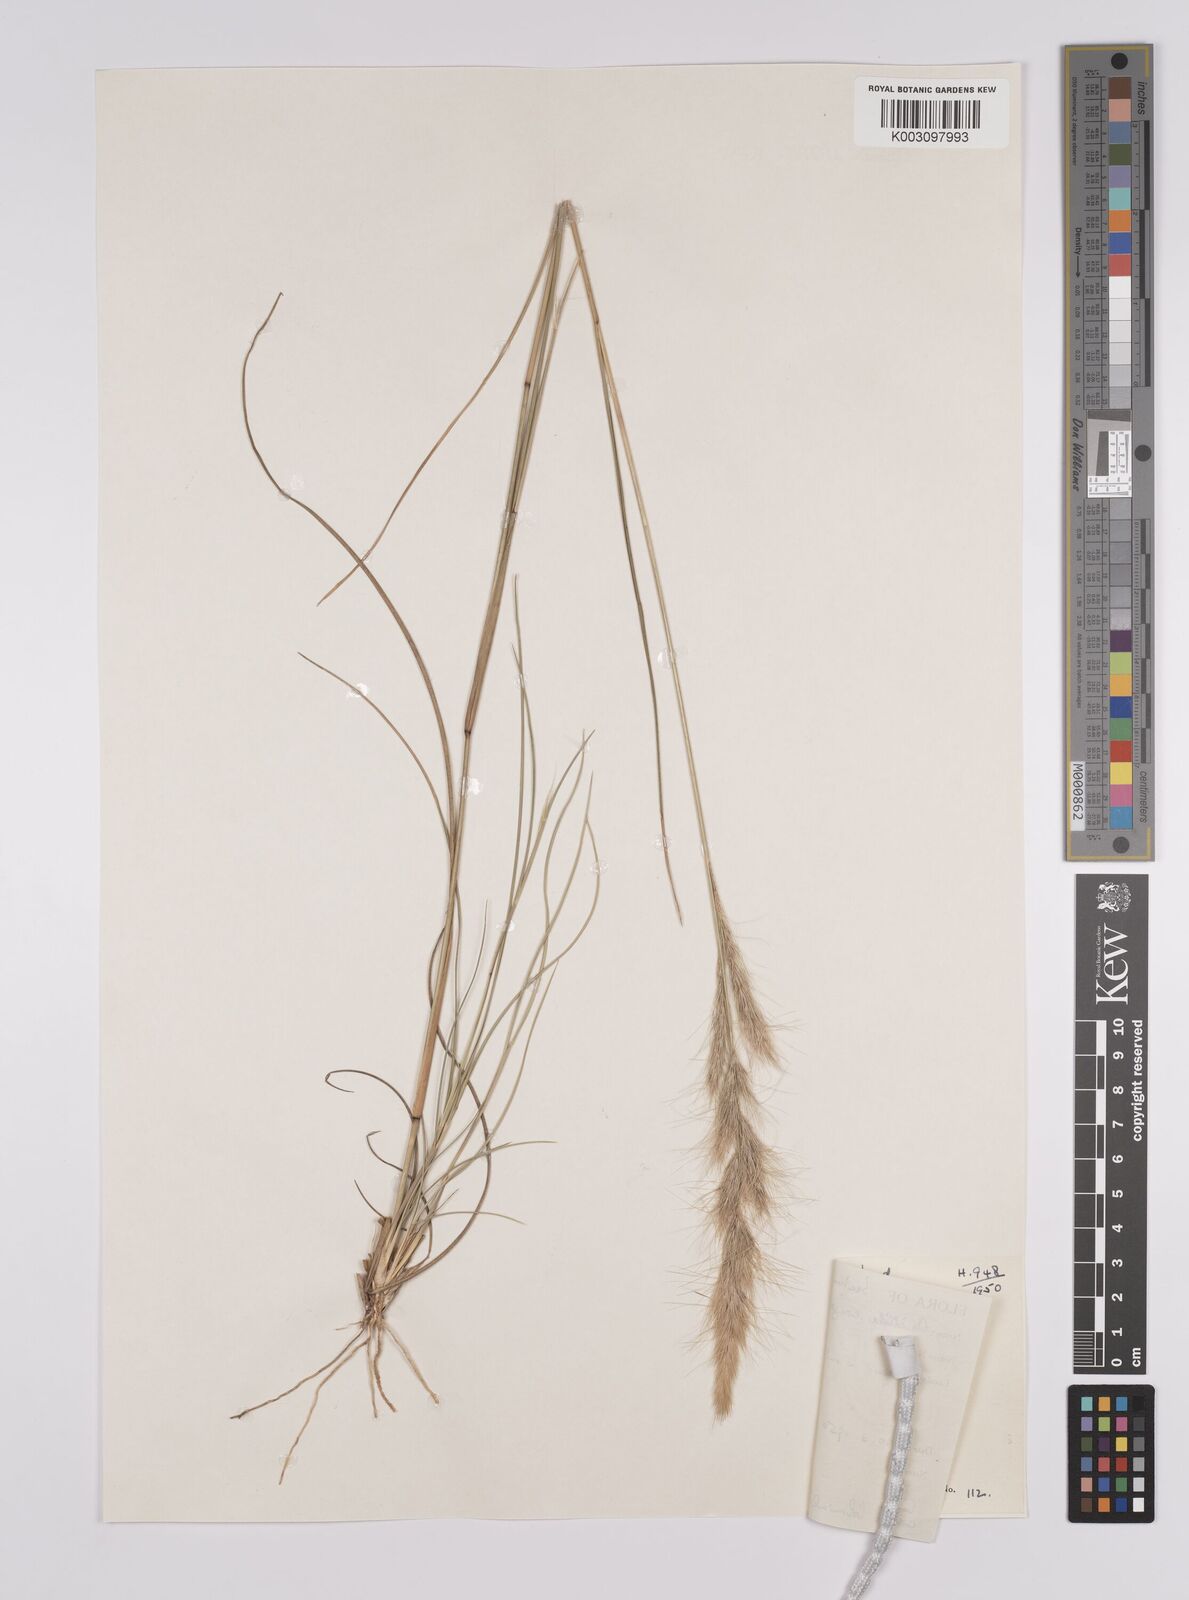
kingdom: Plantae
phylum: Tracheophyta
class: Liliopsida
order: Poales
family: Poaceae
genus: Aristida
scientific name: Aristida congesta
